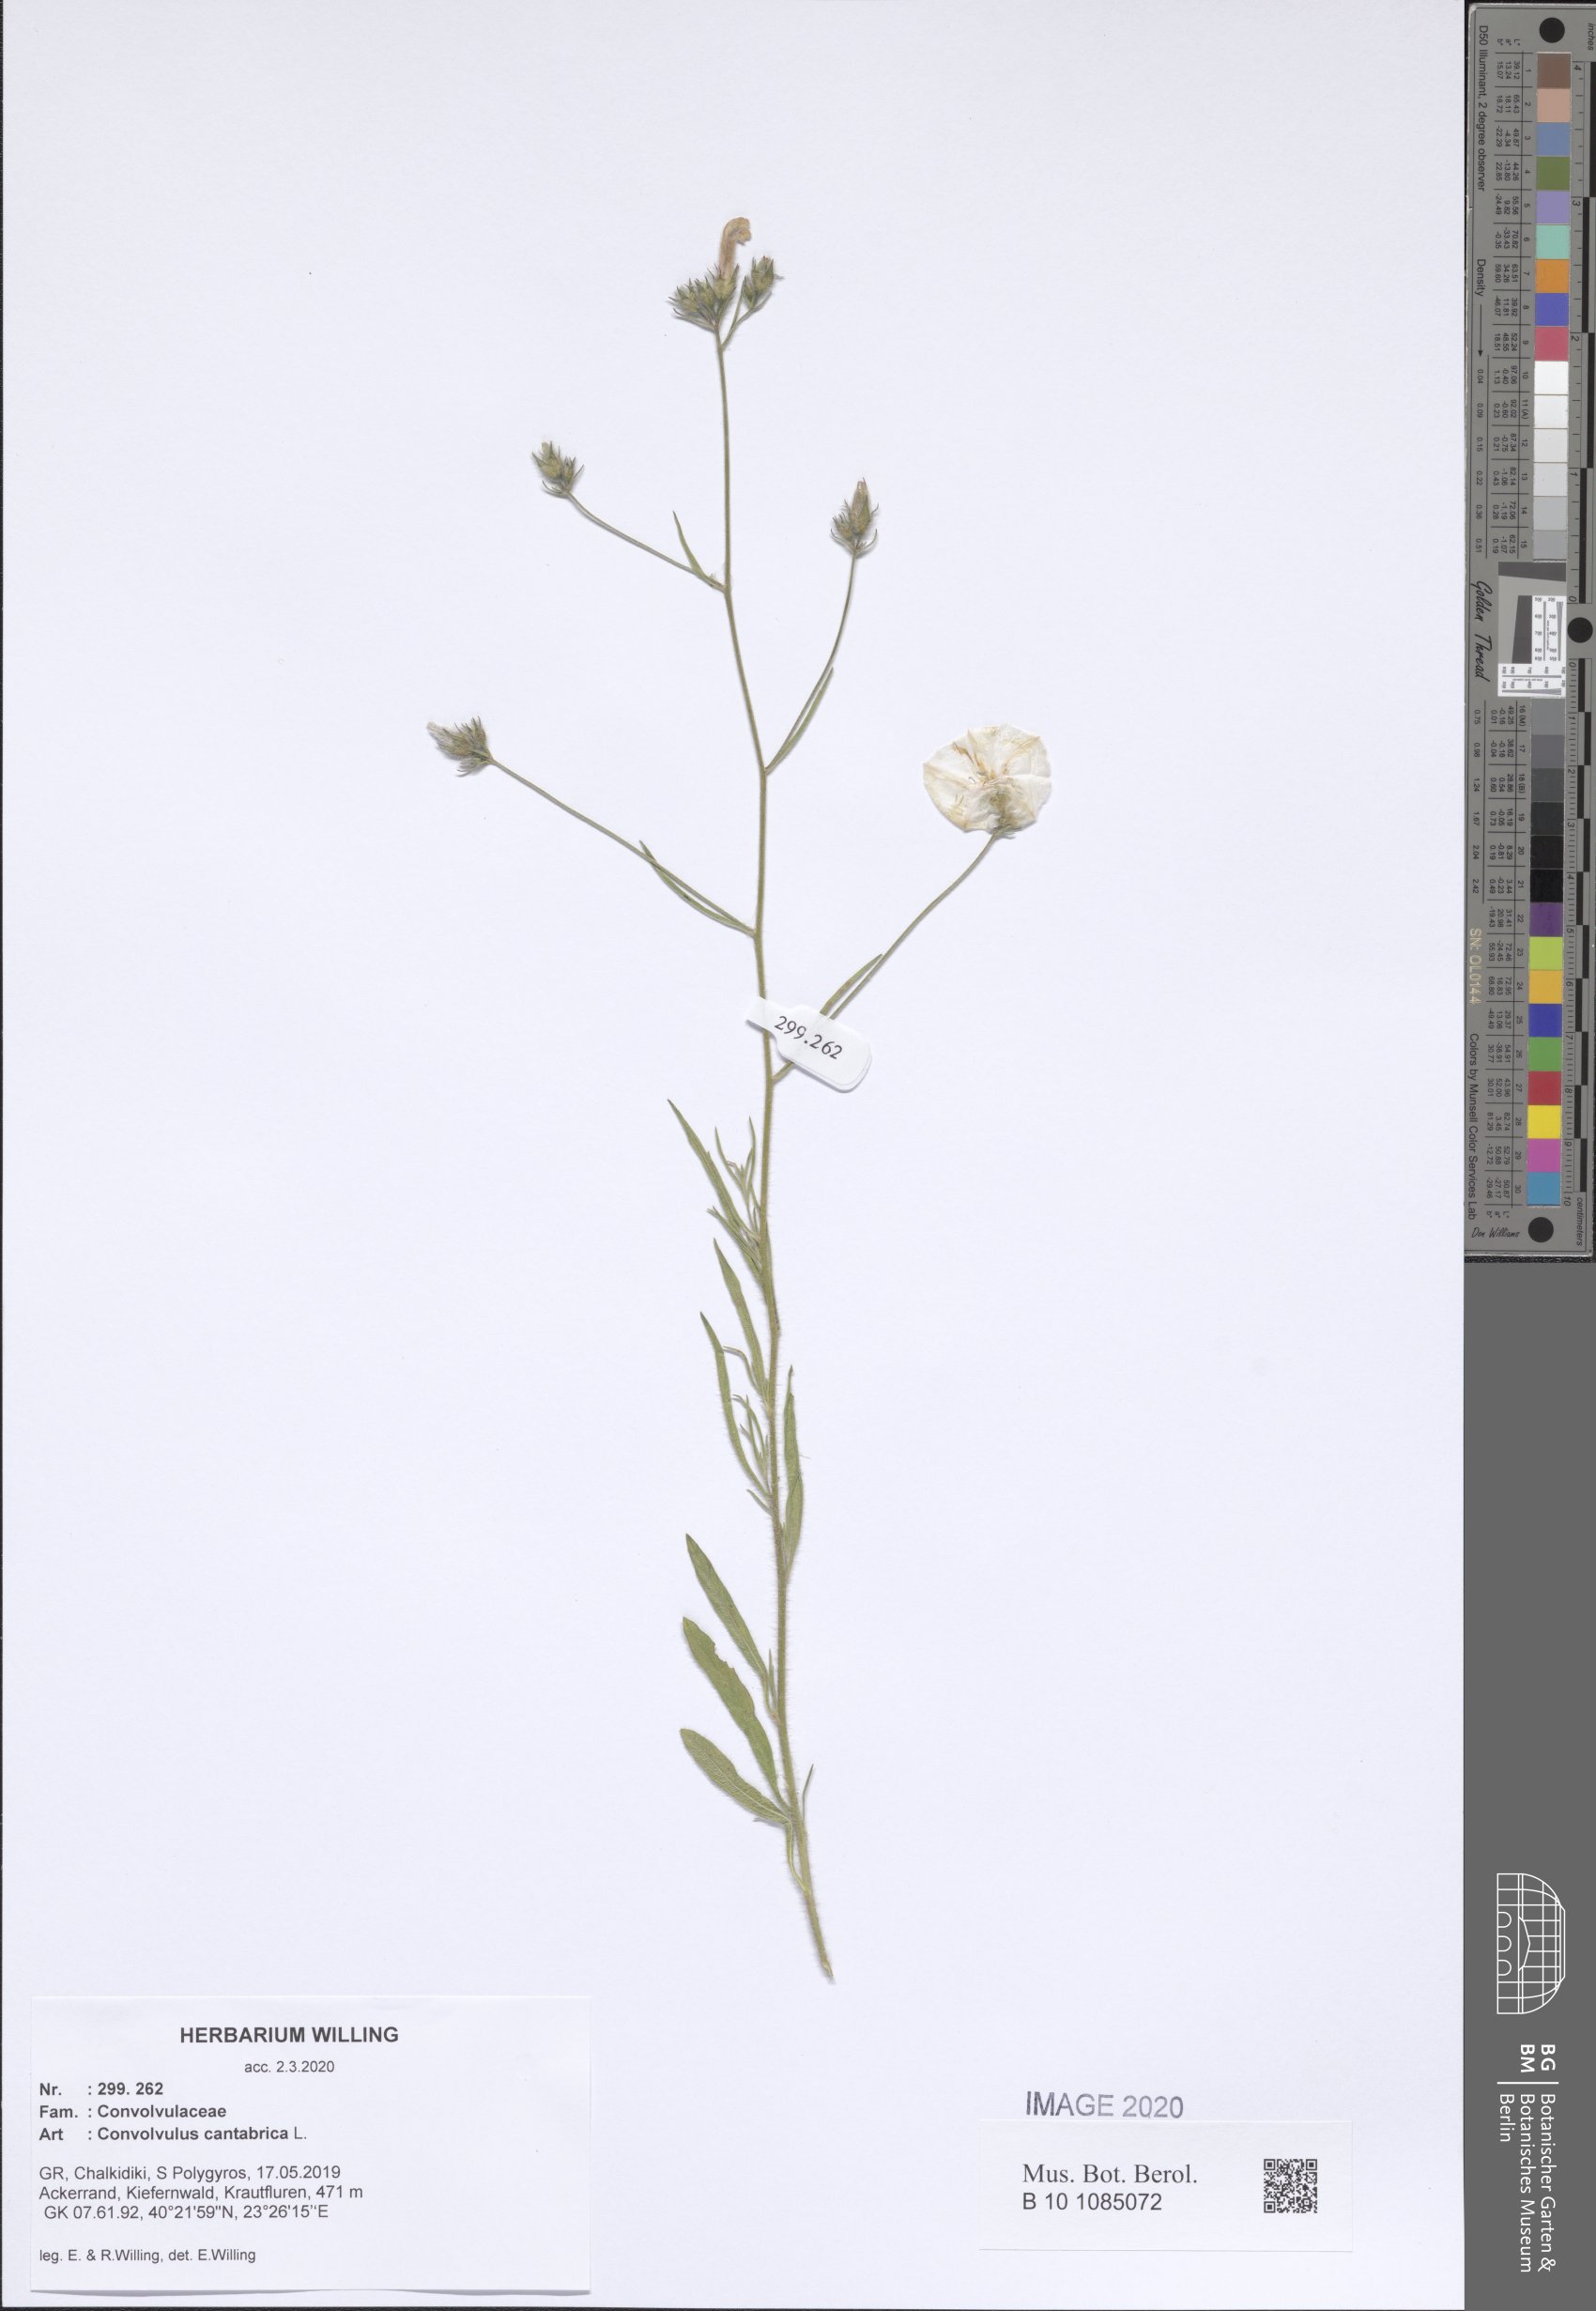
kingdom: Plantae
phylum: Tracheophyta
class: Magnoliopsida
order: Solanales
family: Convolvulaceae
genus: Convolvulus
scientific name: Convolvulus cantabrica
